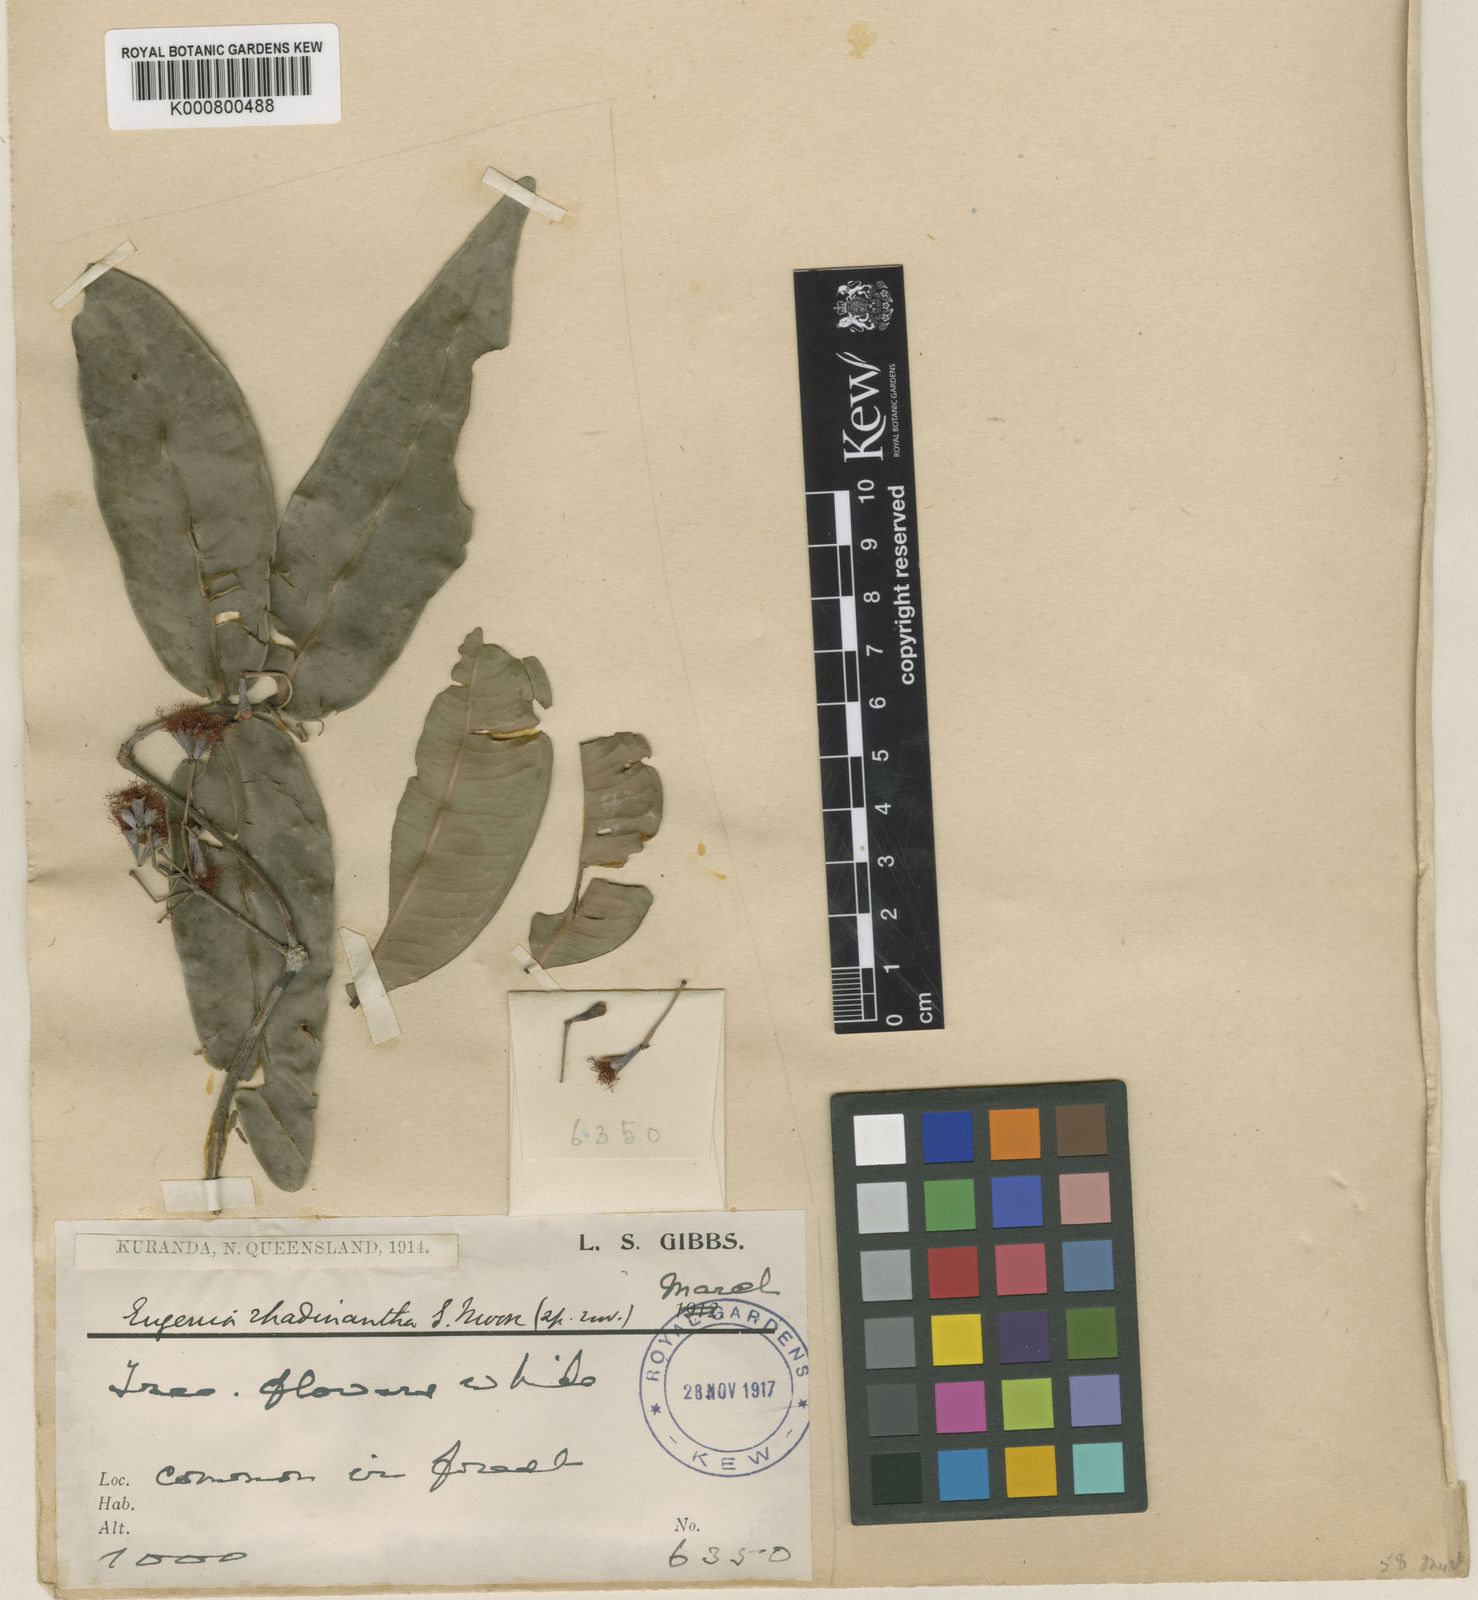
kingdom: Plantae
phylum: Tracheophyta
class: Magnoliopsida
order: Myrtales
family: Myrtaceae
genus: Syzygium
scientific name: Syzygium wilsonii
